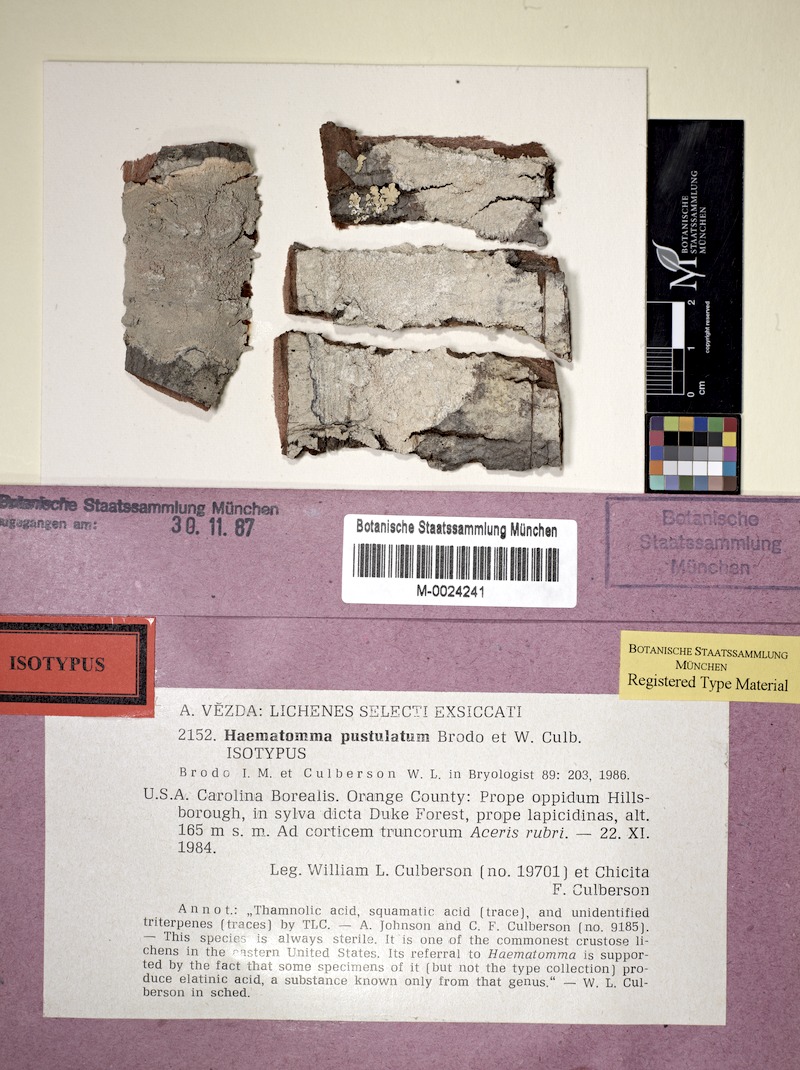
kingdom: Fungi
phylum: Ascomycota
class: Lecanoromycetes
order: Pertusariales
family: Pertusariaceae
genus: Lepra
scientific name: Lepra pustulata
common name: Pustule crust lichen
